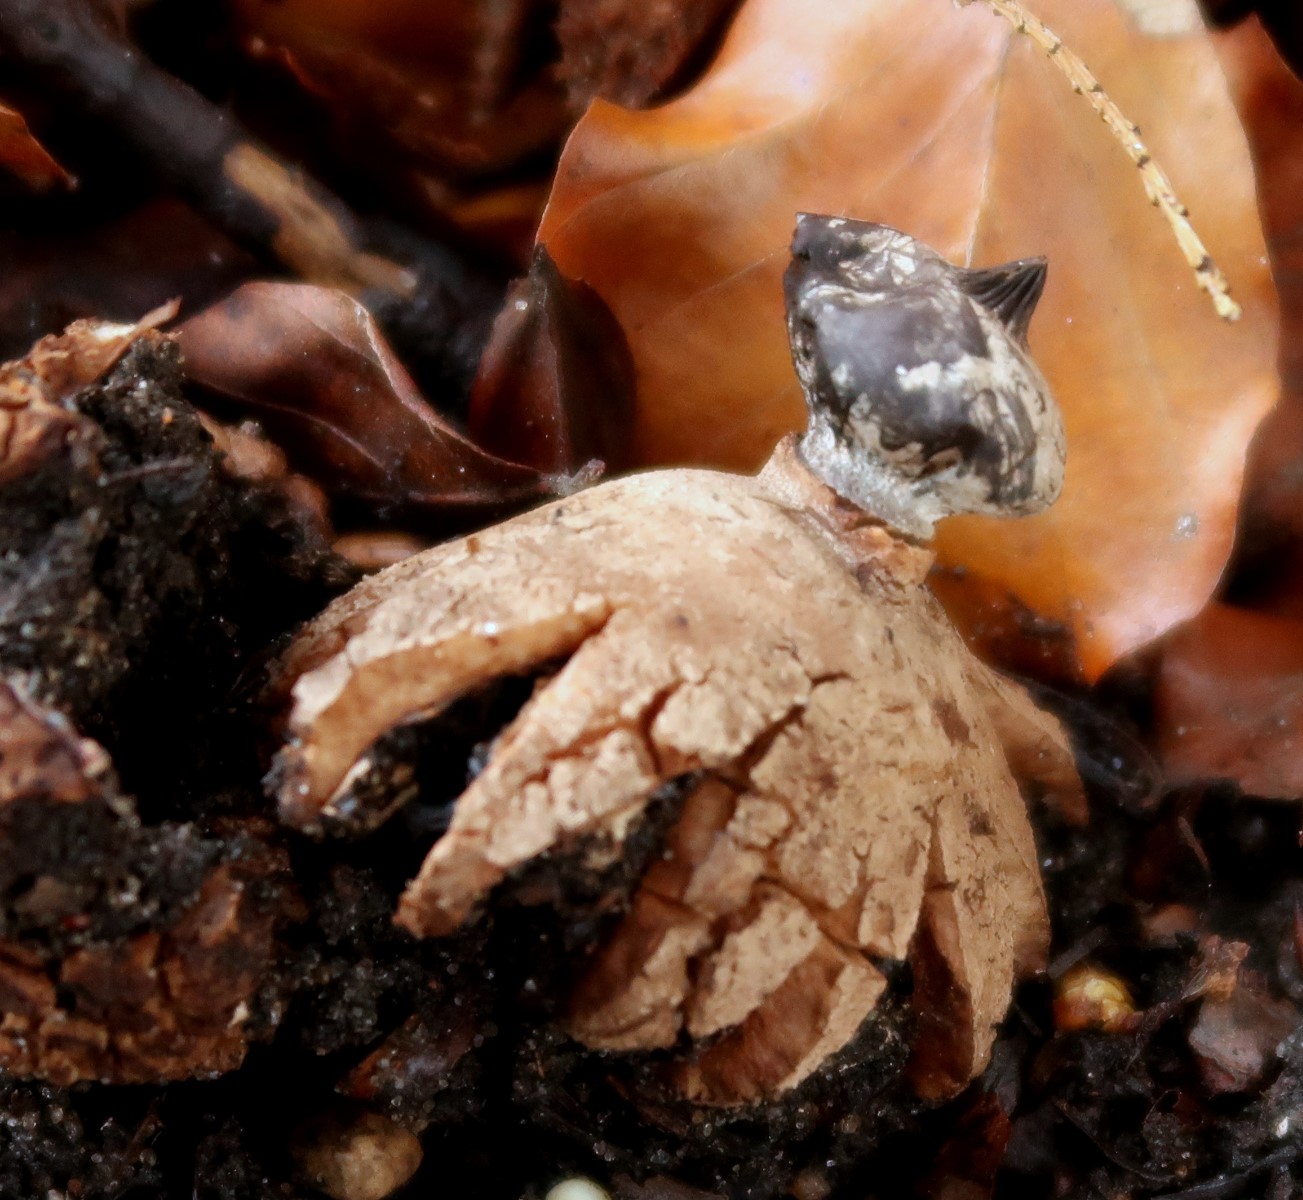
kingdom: Fungi
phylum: Basidiomycota
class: Agaricomycetes
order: Geastrales
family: Geastraceae
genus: Geastrum
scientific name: Geastrum striatum
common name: krave-stjernebold
